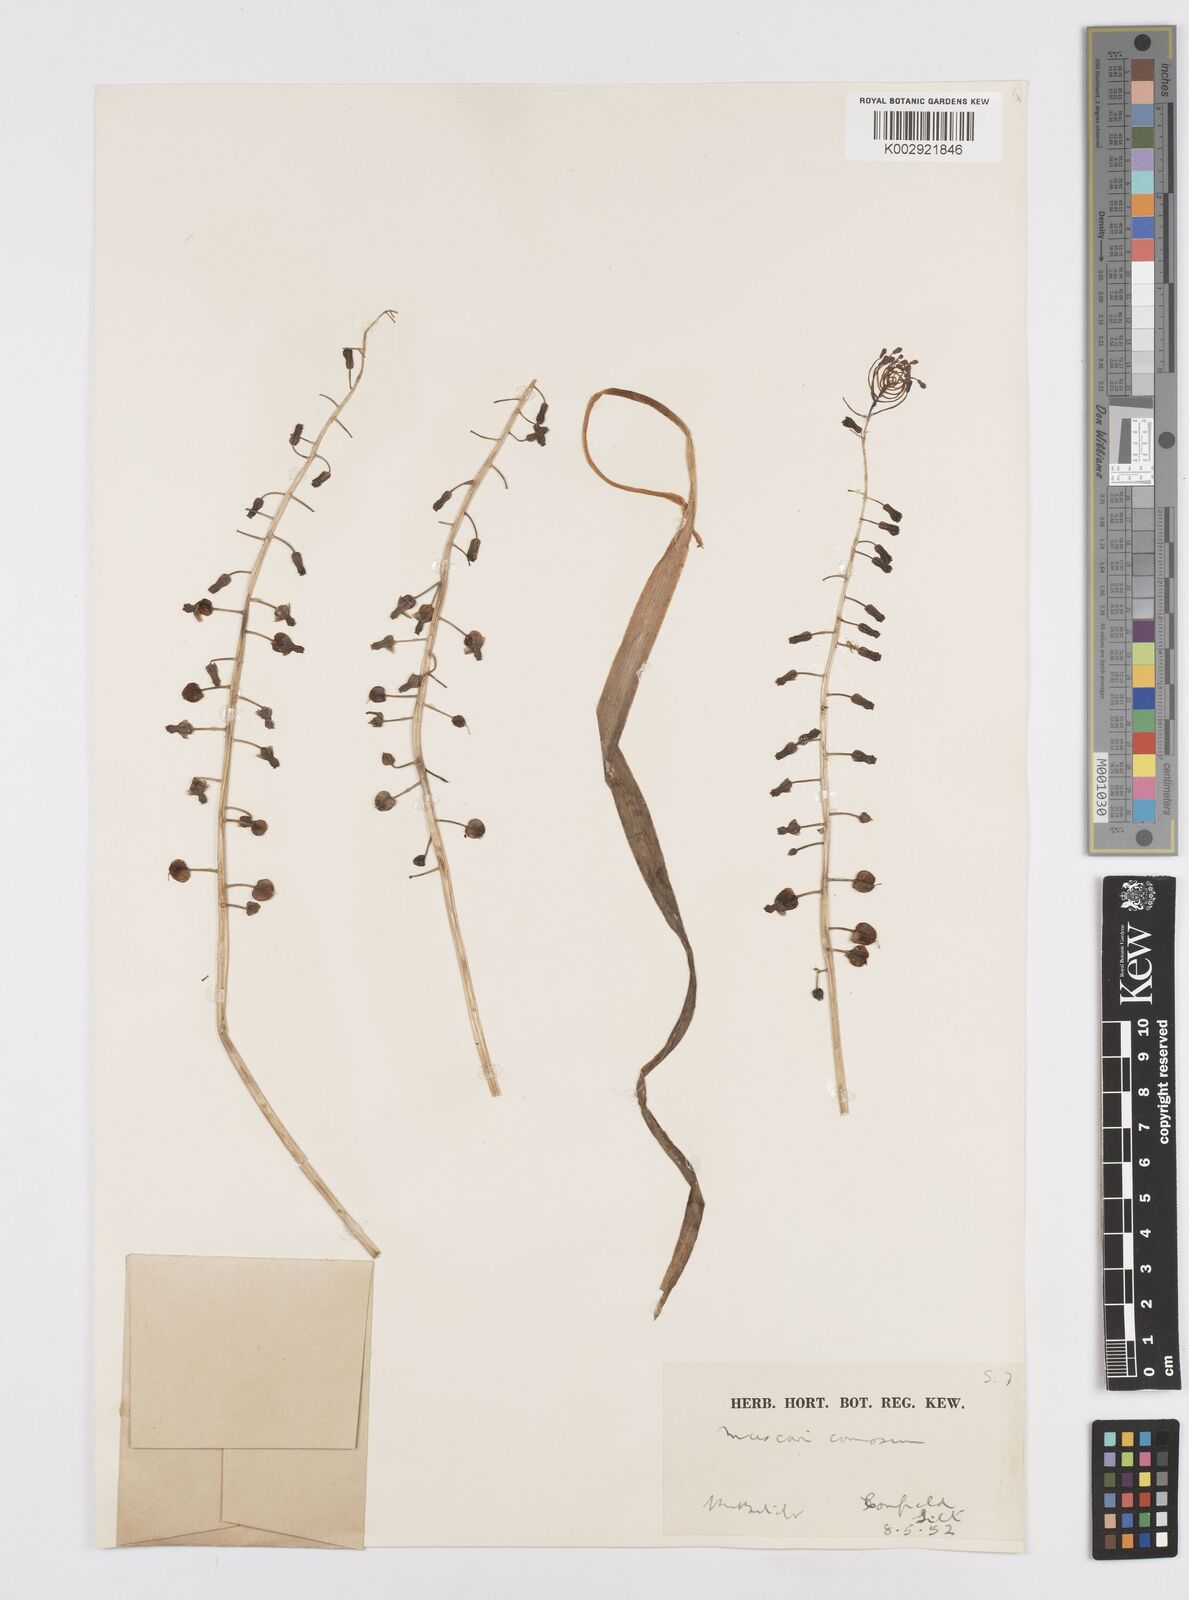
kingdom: Plantae
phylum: Tracheophyta
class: Liliopsida
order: Asparagales
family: Asparagaceae
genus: Muscari
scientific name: Muscari comosum
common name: Tassel hyacinth
